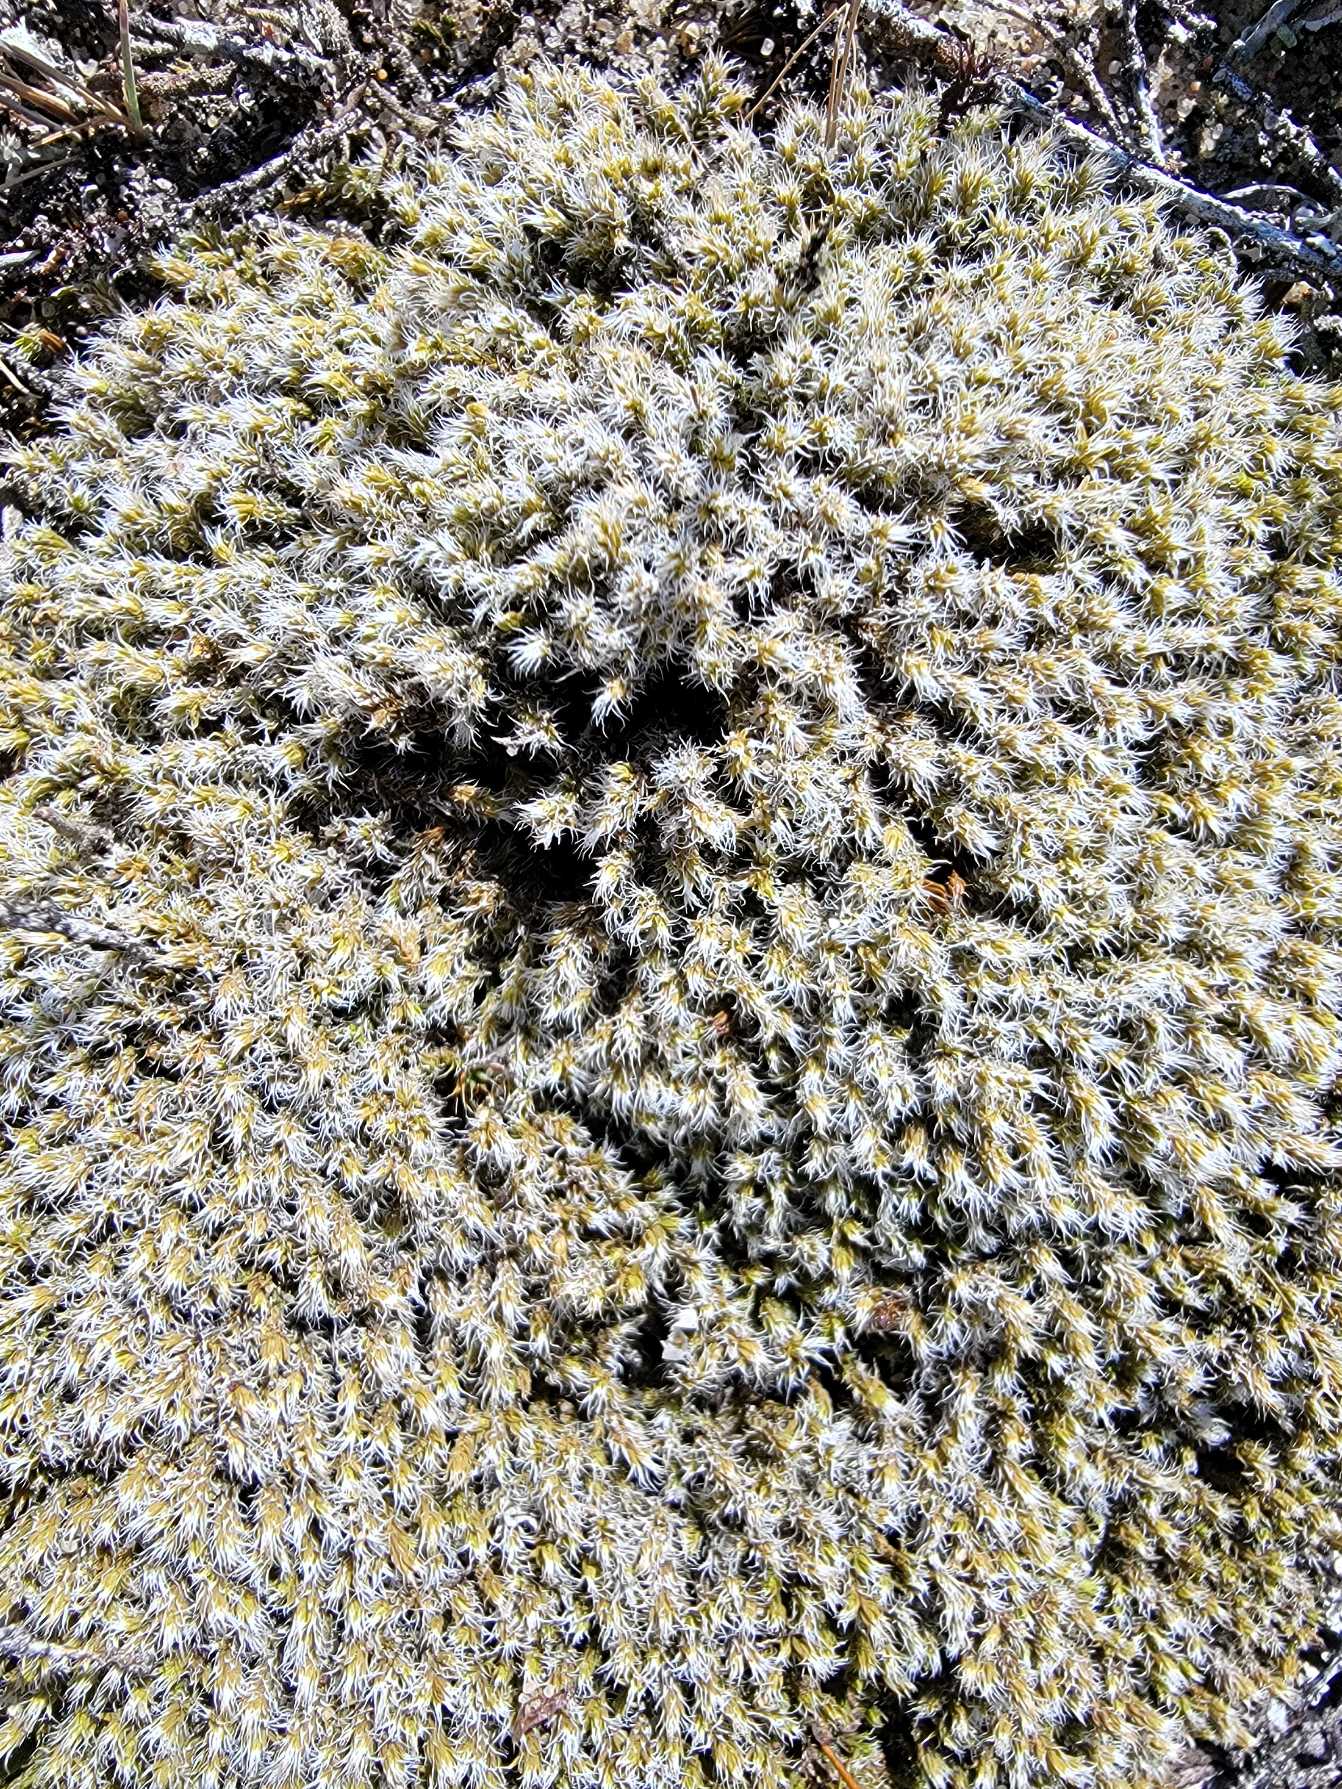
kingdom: Plantae
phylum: Bryophyta
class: Bryopsida
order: Grimmiales
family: Grimmiaceae
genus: Niphotrichum
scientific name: Niphotrichum canescens
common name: Sand-børstemos
